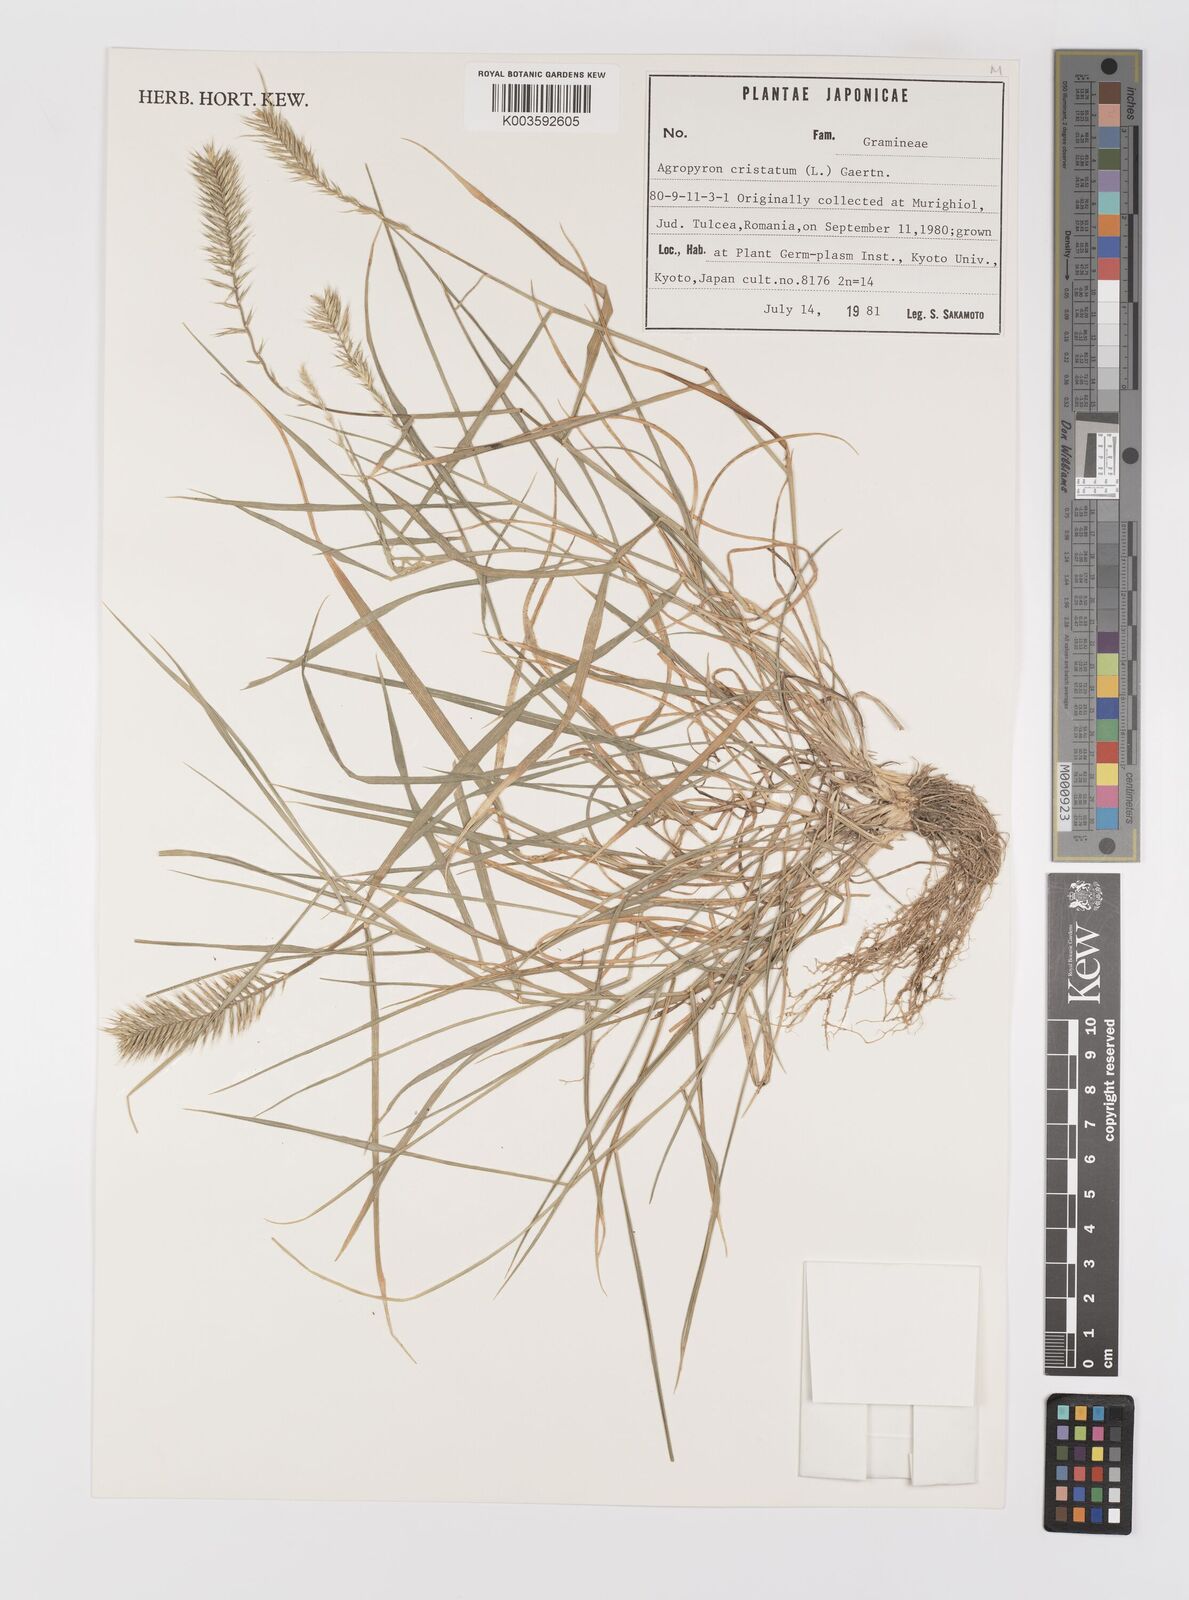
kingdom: Plantae
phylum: Tracheophyta
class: Liliopsida
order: Poales
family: Poaceae
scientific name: Poaceae
